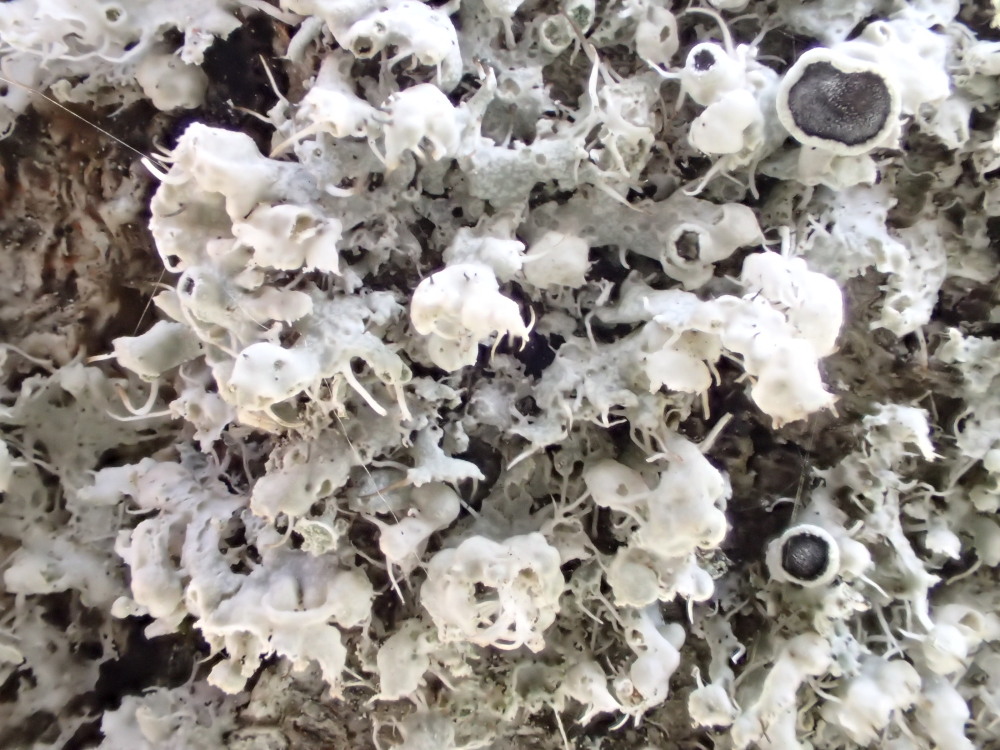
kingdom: Fungi
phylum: Ascomycota
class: Lecanoromycetes
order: Caliciales
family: Physciaceae
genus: Physcia
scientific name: Physcia adscendens
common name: hætte-rosetlav
